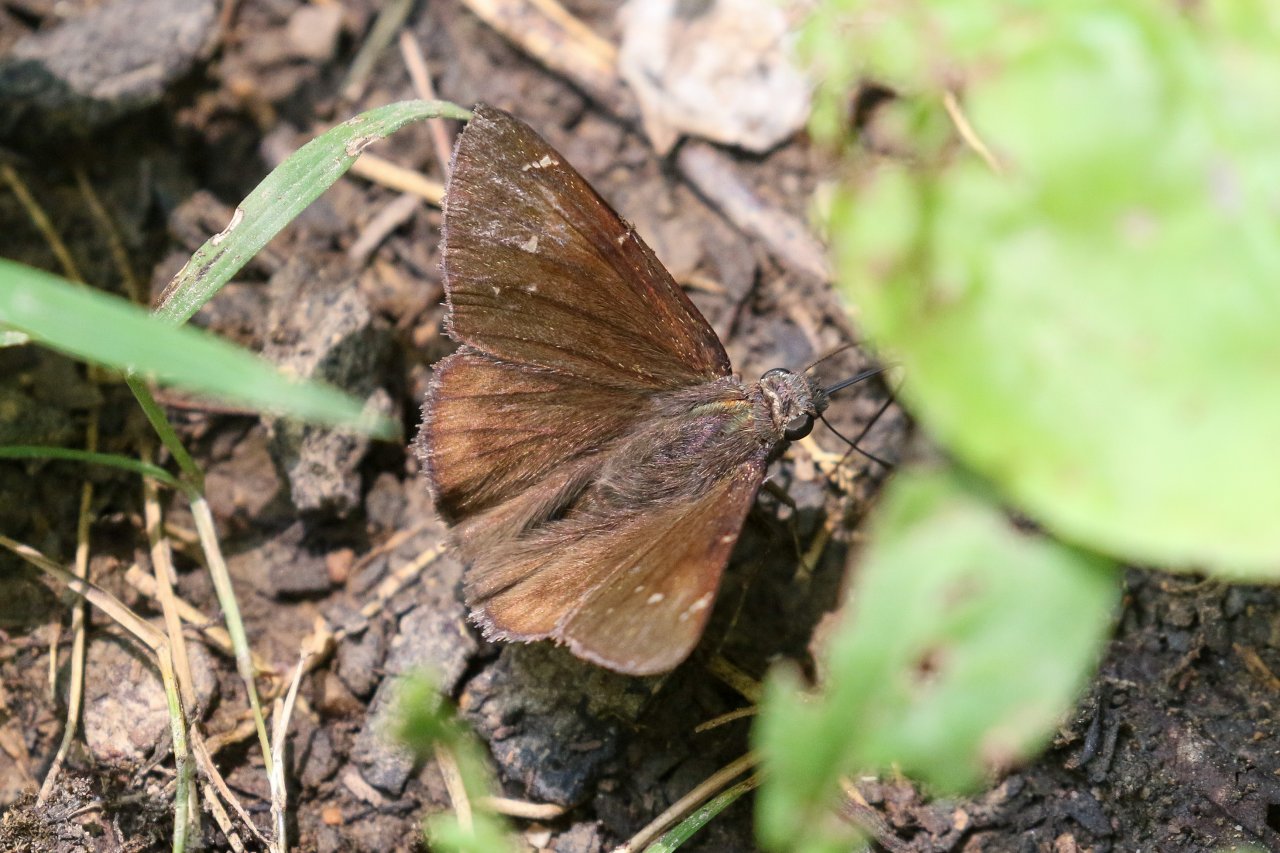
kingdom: Animalia
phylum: Arthropoda
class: Insecta
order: Lepidoptera
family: Hesperiidae
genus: Autochton
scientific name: Autochton
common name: Northern Cloudywing
